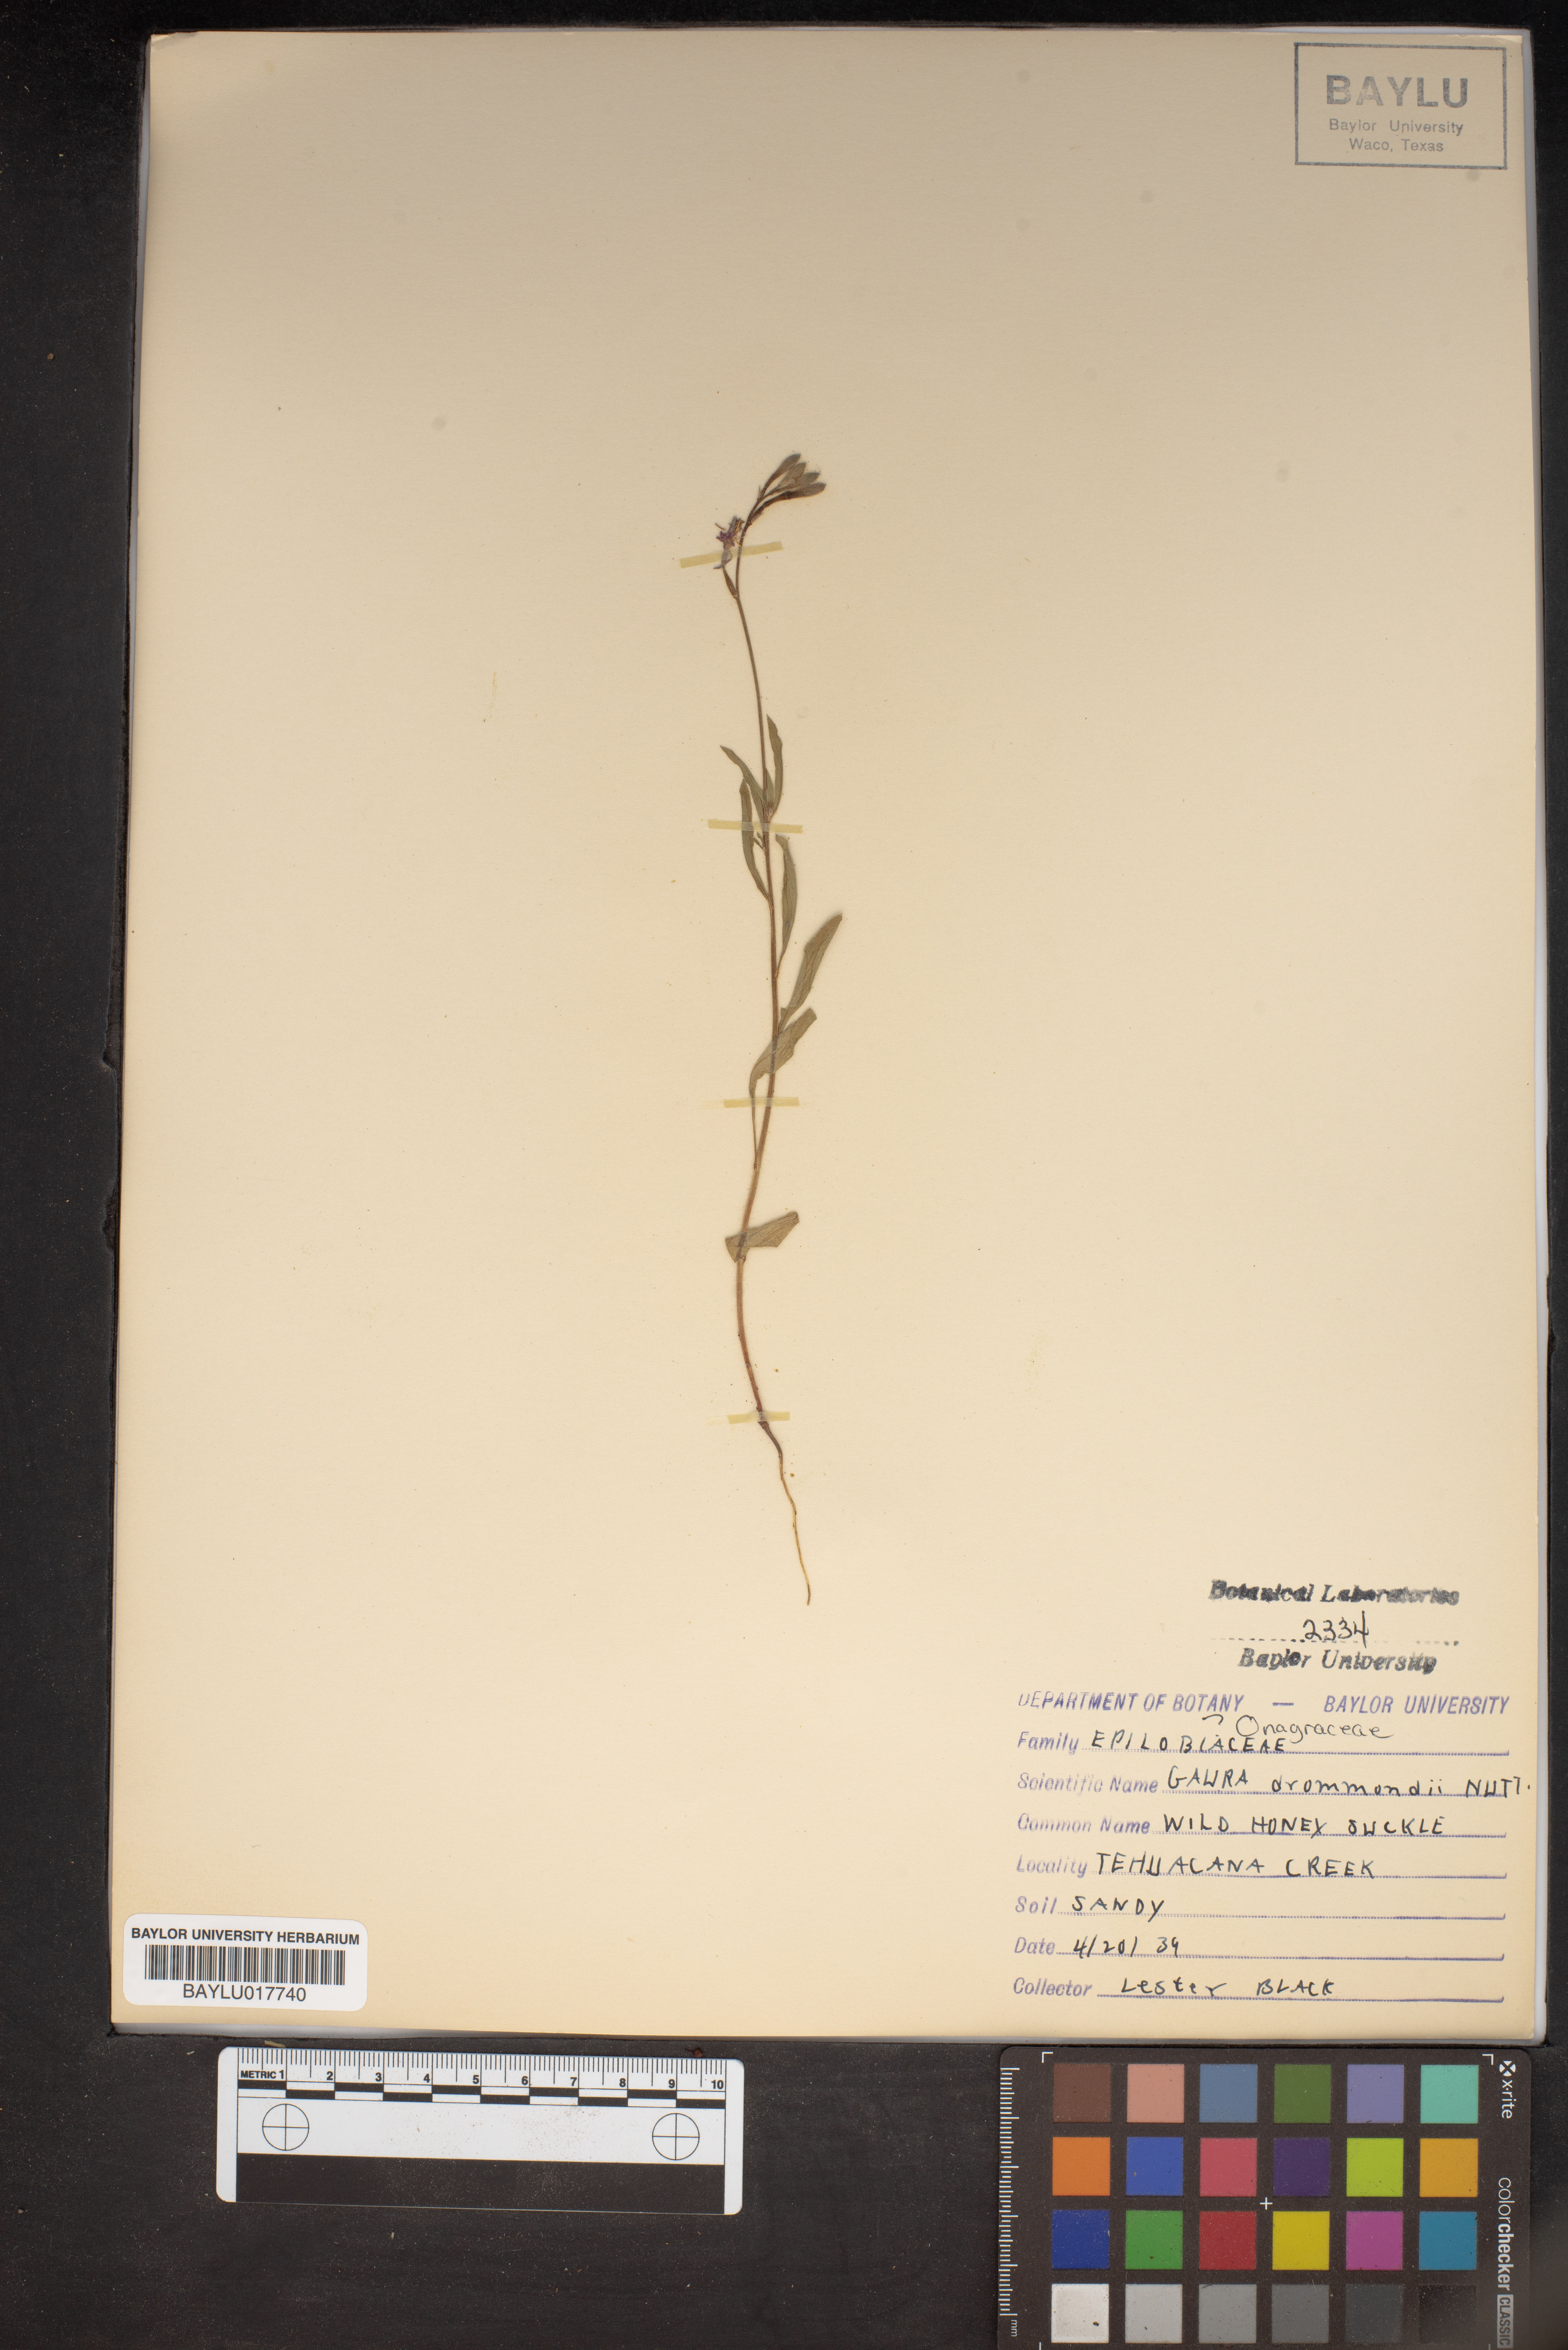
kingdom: Plantae
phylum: Tracheophyta
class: Magnoliopsida
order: Myrtales
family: Onagraceae
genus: Oenothera
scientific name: Oenothera hispida
